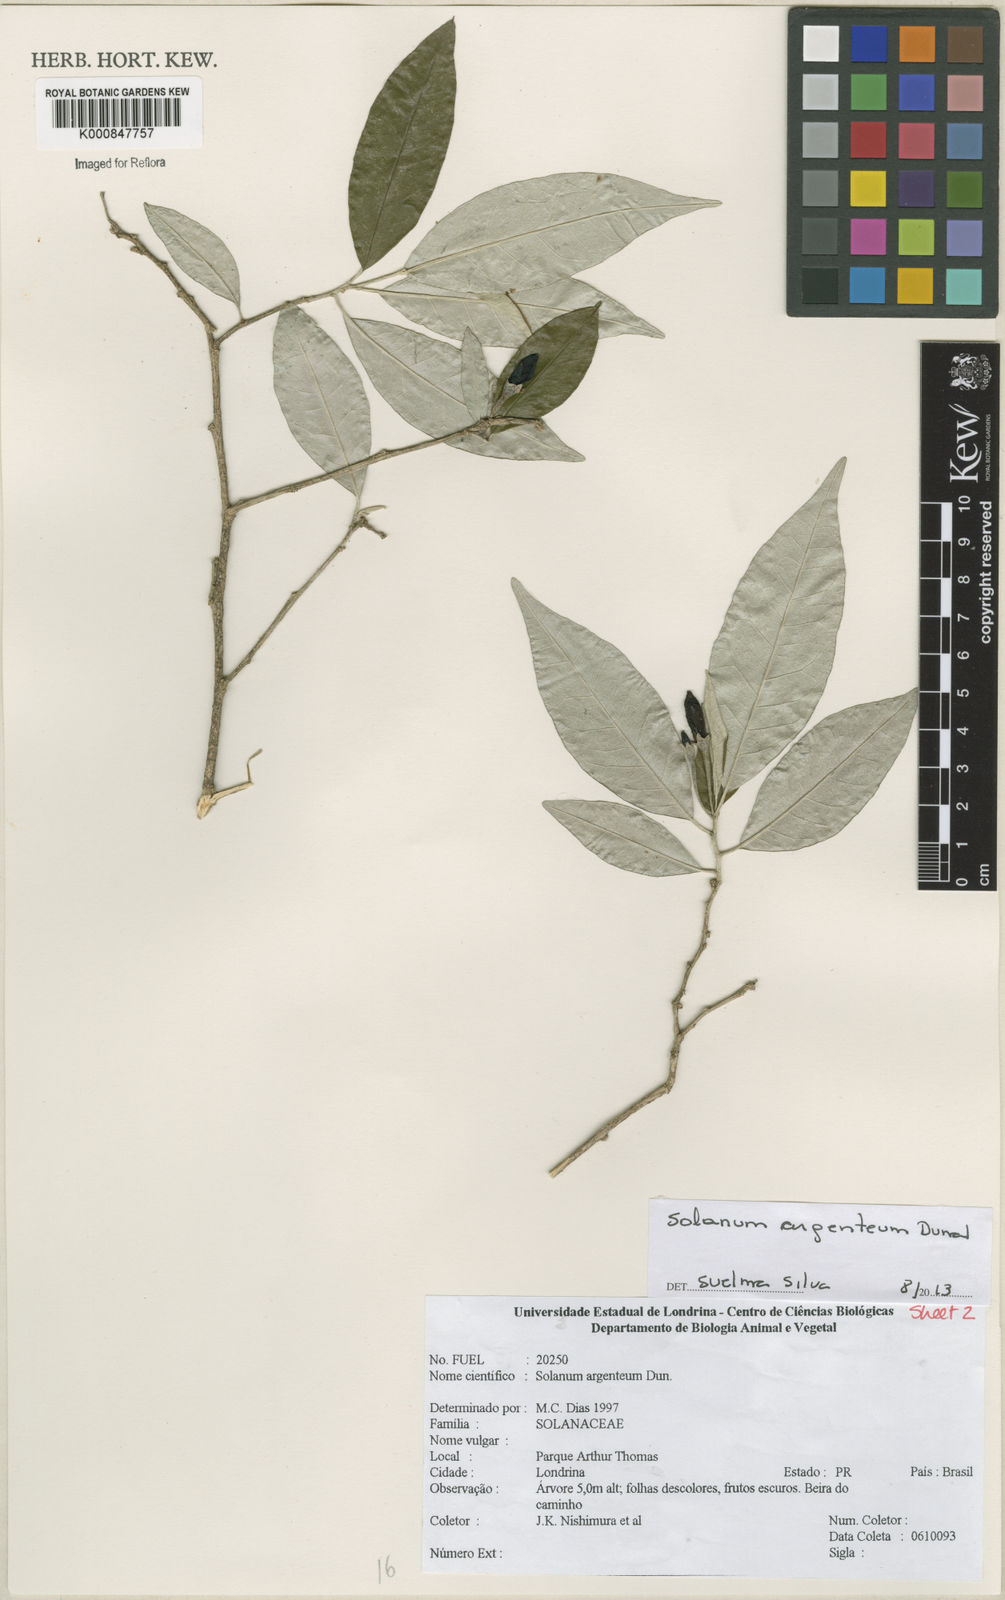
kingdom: Plantae
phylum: Tracheophyta
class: Magnoliopsida
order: Solanales
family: Solanaceae
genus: Solanum
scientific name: Solanum swartzianum
